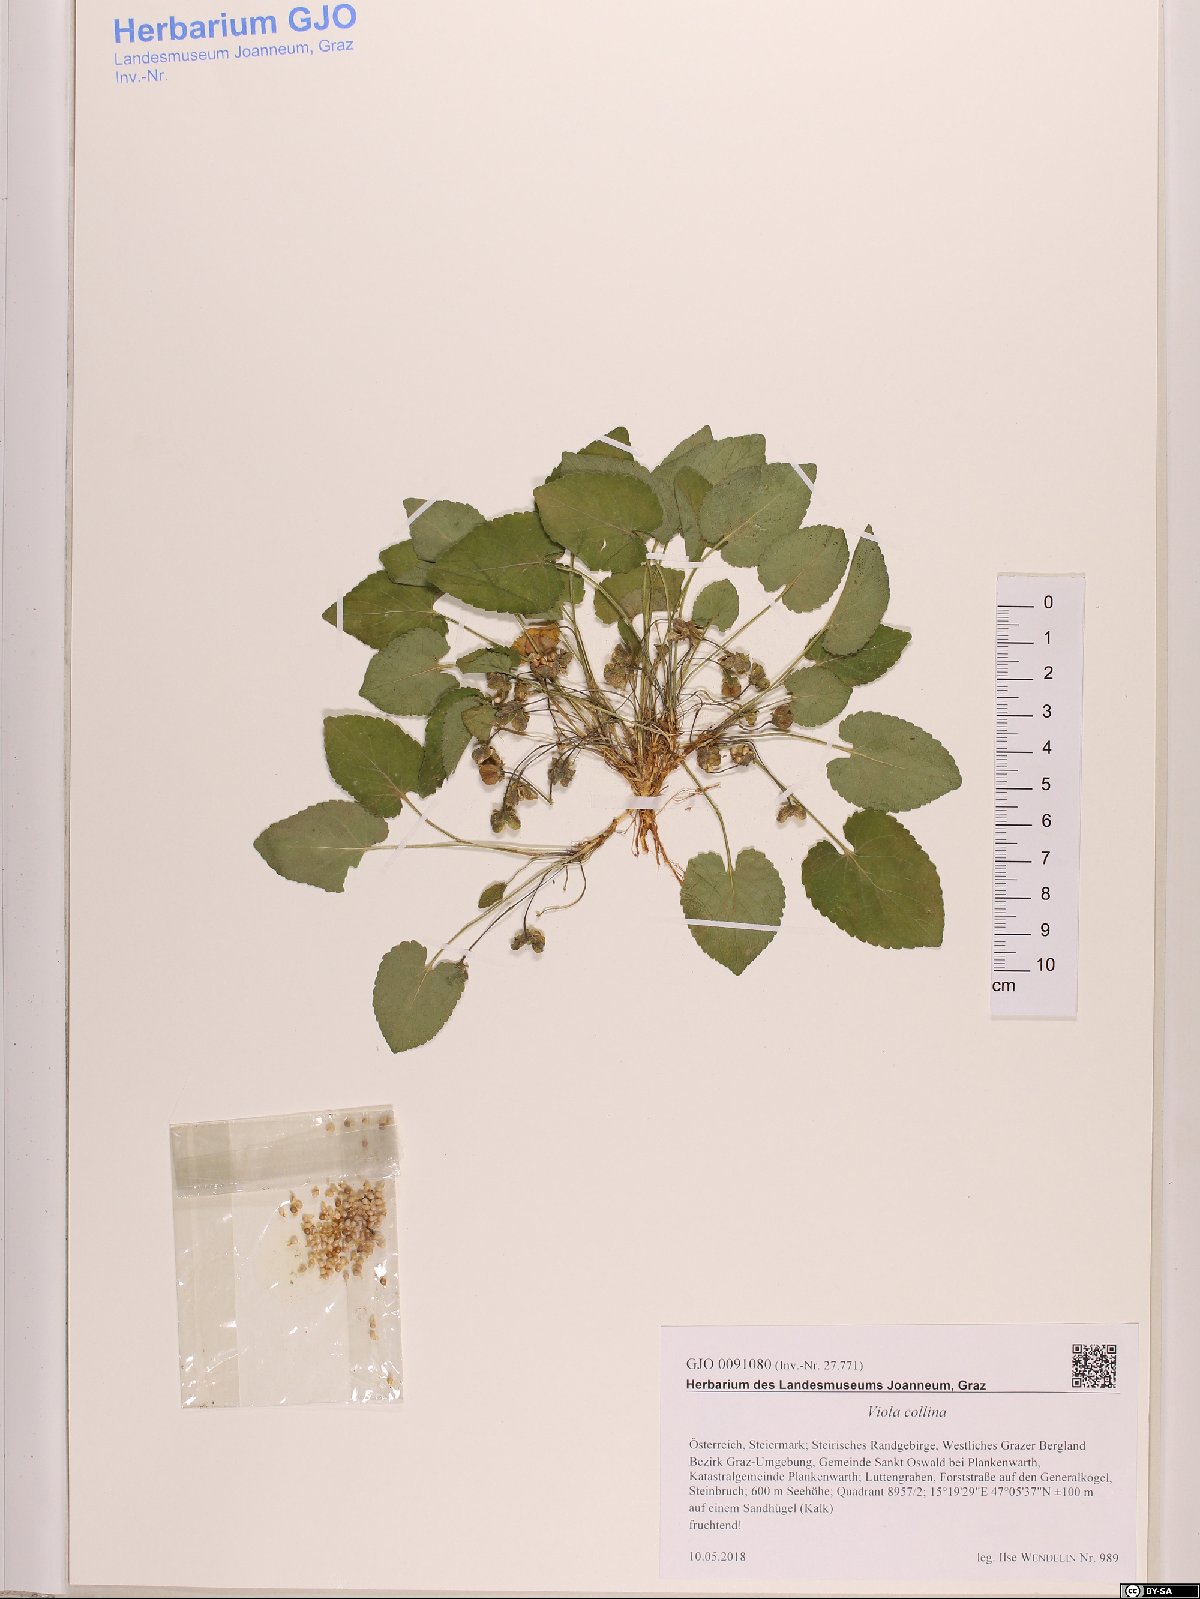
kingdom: Plantae
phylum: Tracheophyta
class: Magnoliopsida
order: Malpighiales
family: Violaceae
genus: Viola
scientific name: Viola collina
